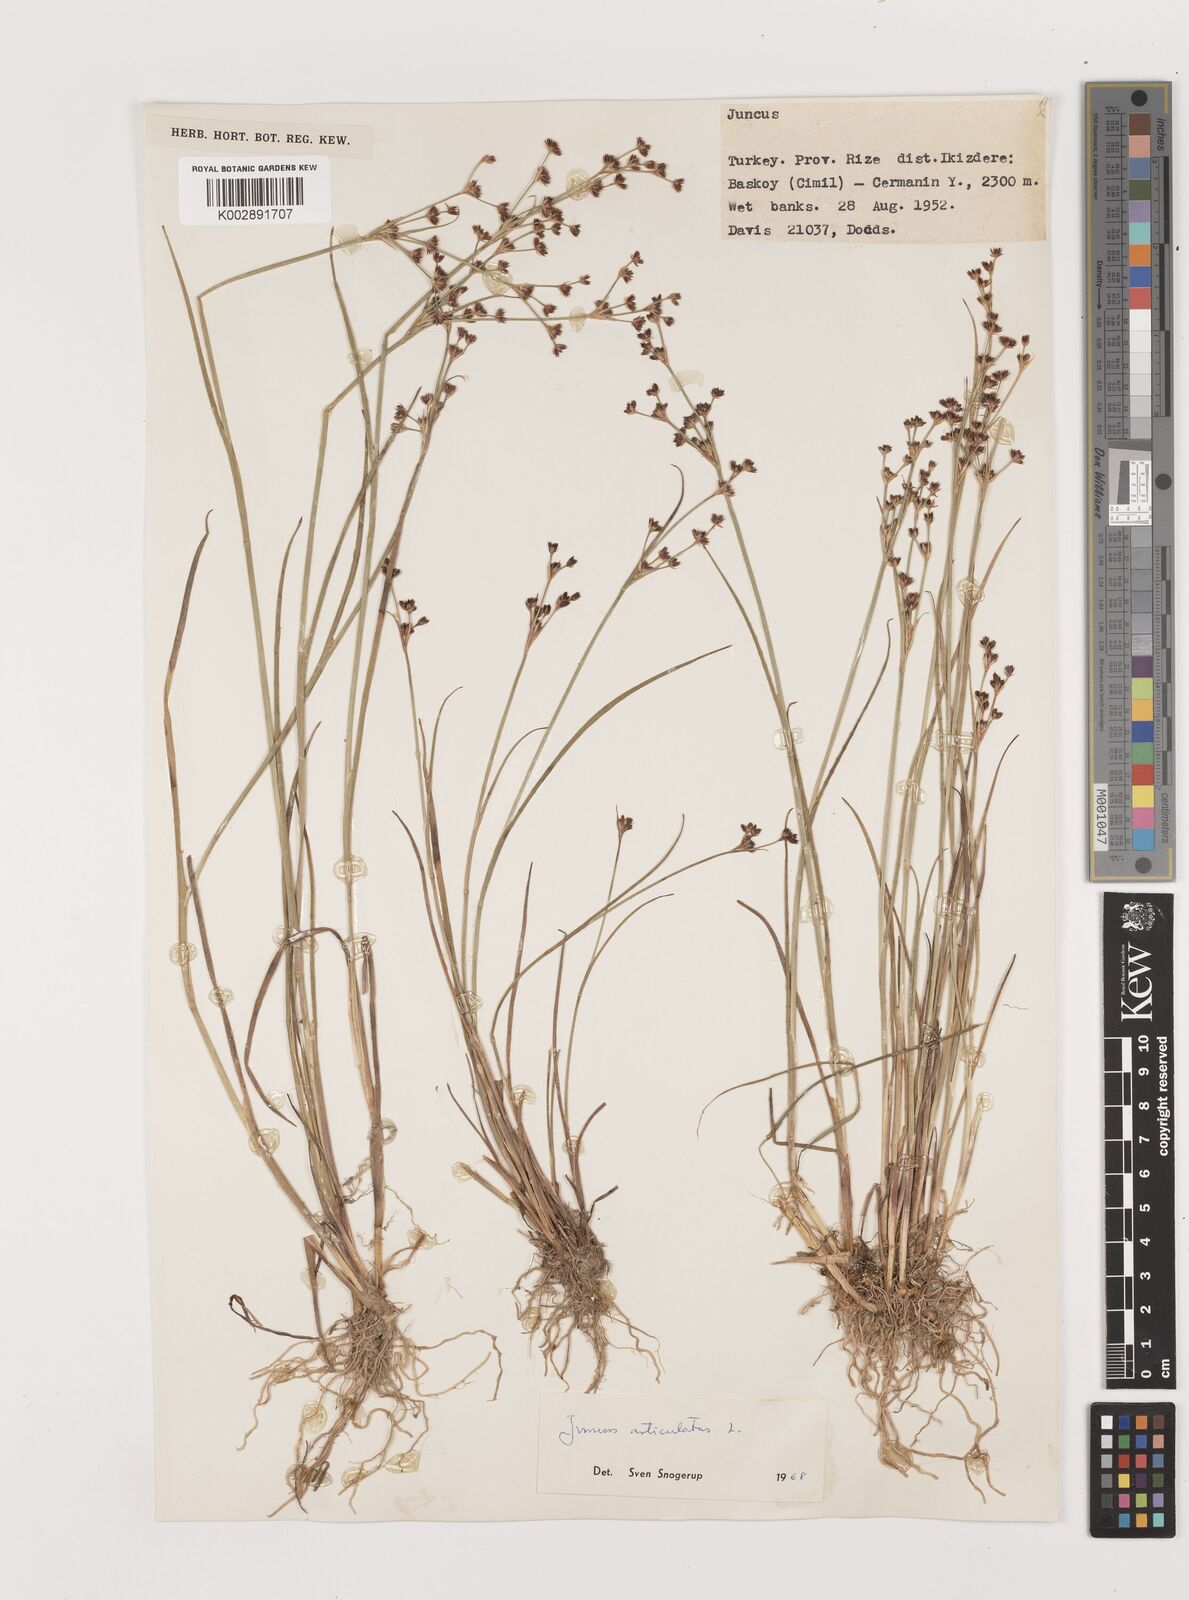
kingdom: Plantae
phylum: Tracheophyta
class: Liliopsida
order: Poales
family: Juncaceae
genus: Juncus
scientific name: Juncus articulatus
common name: Jointed rush
